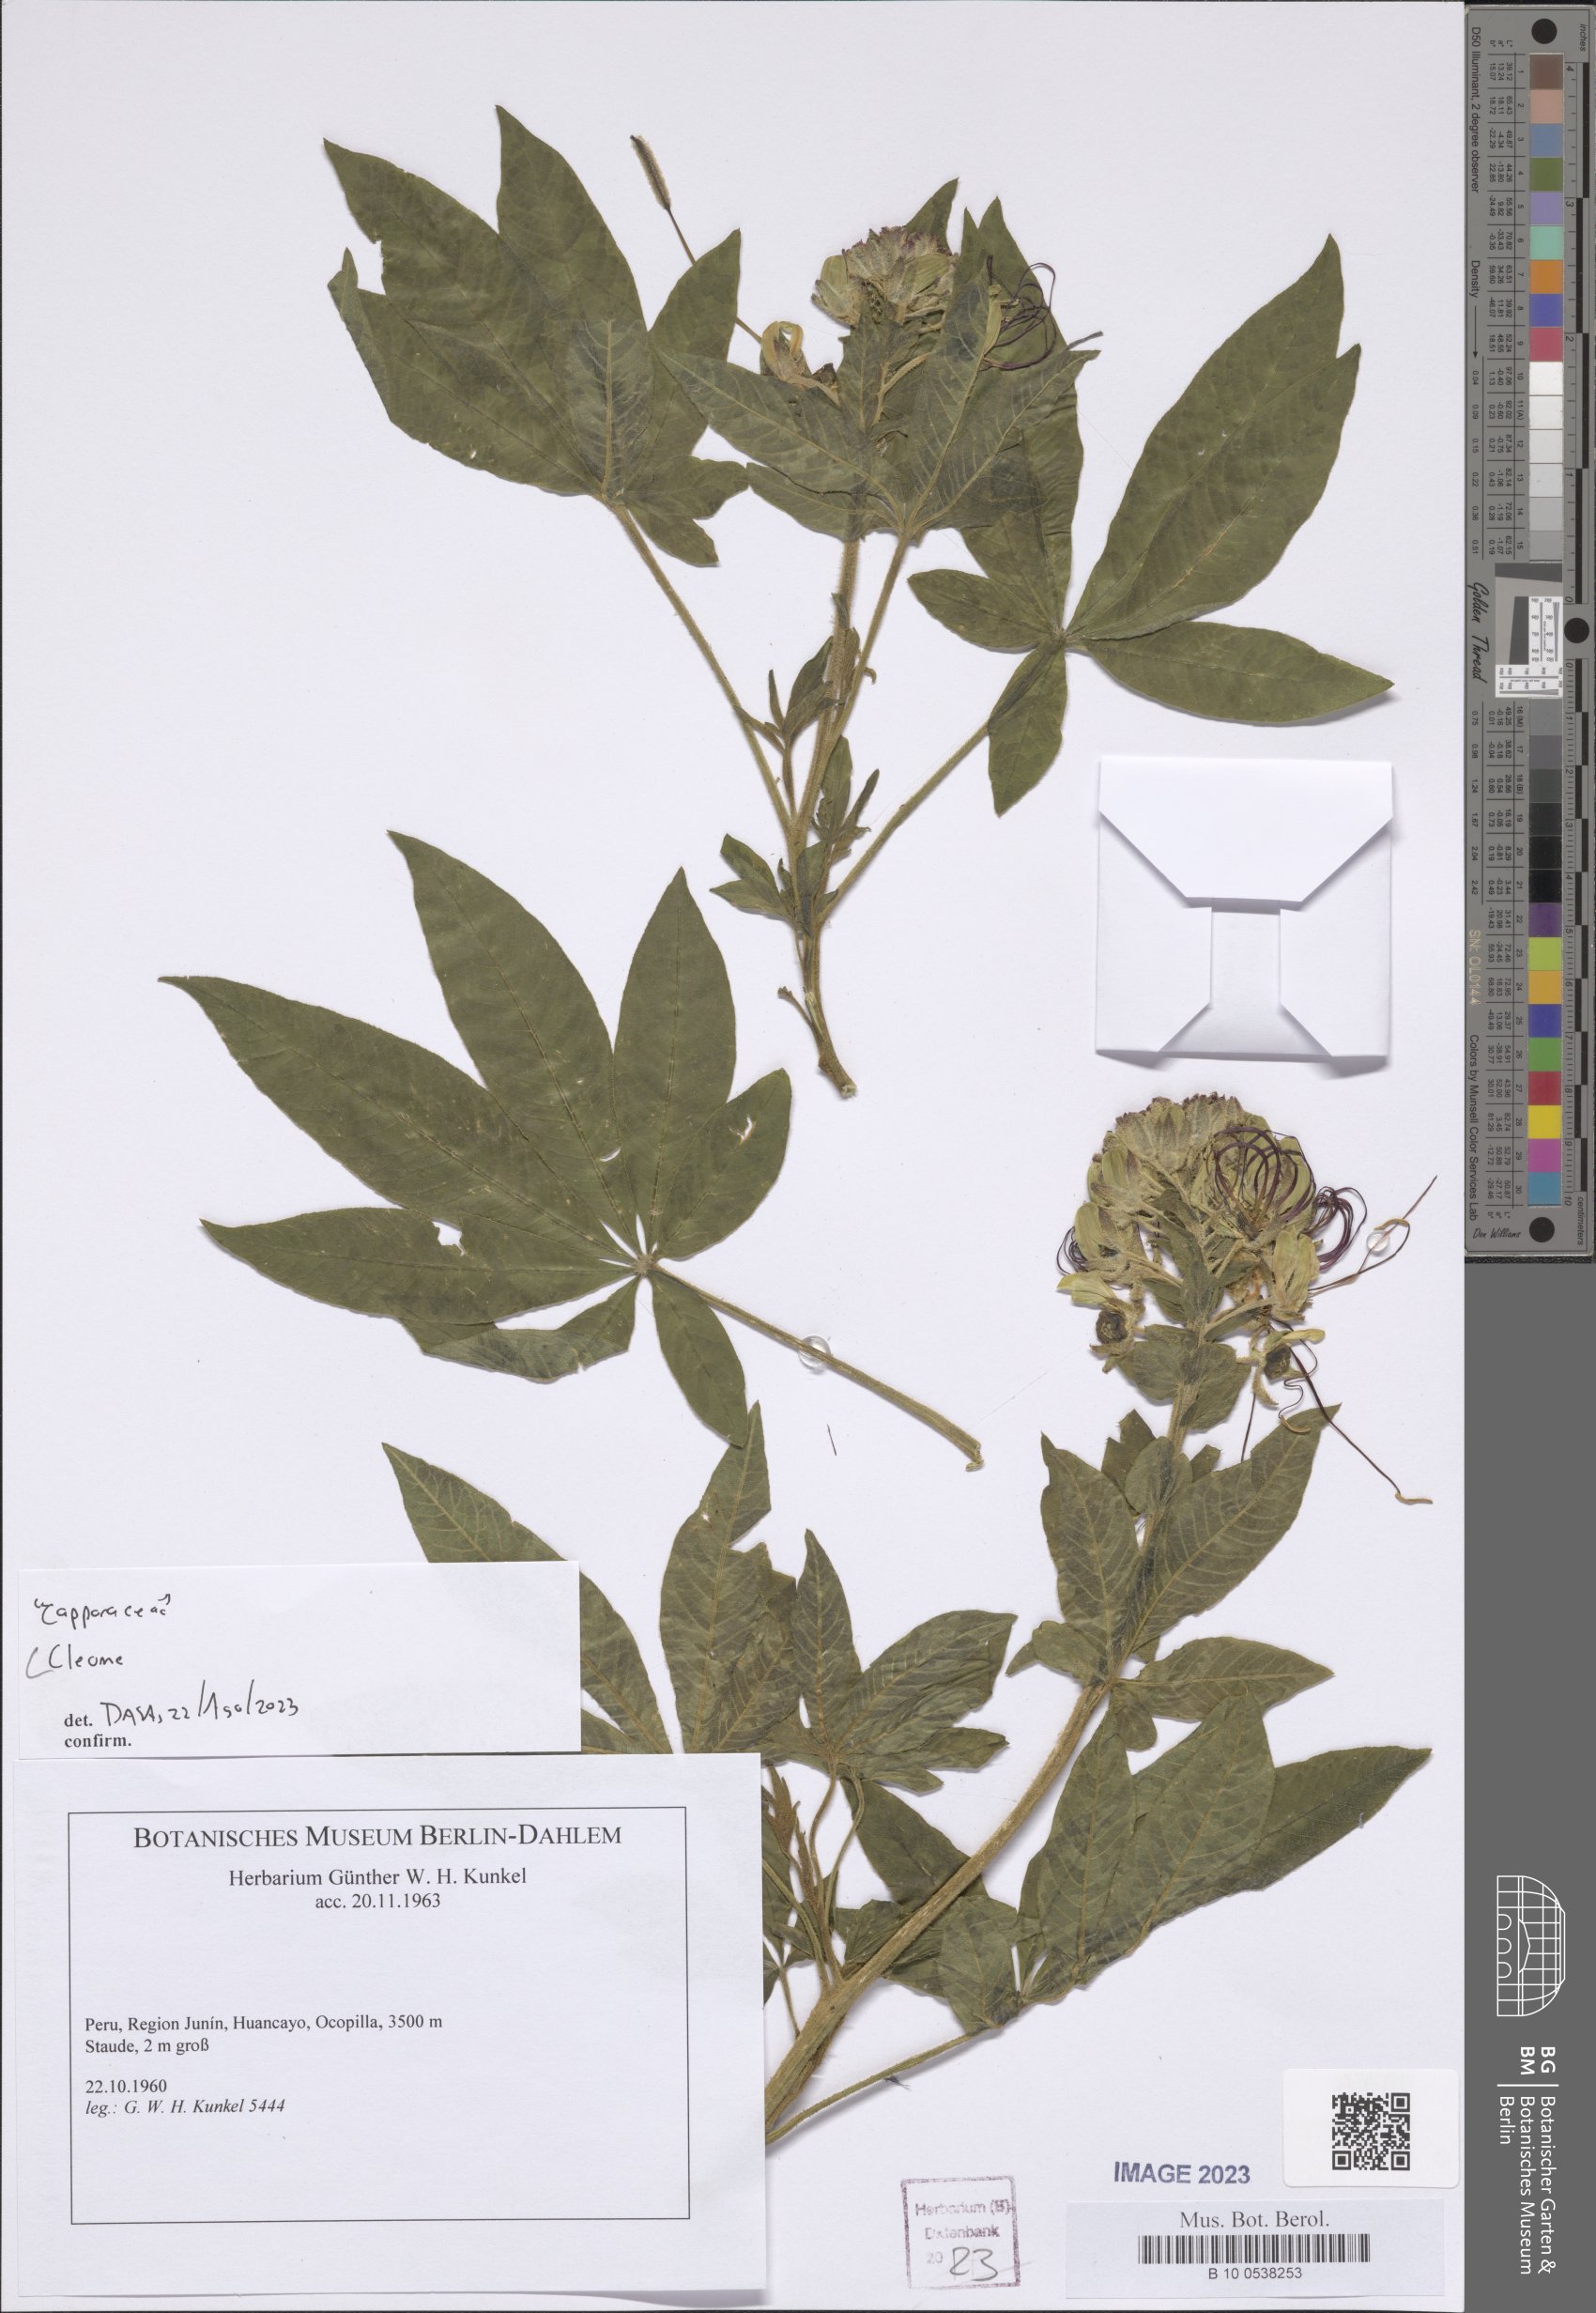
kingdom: Plantae
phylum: Tracheophyta
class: Magnoliopsida
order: Brassicales
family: Cleomaceae
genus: Cleome
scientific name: Cleome
